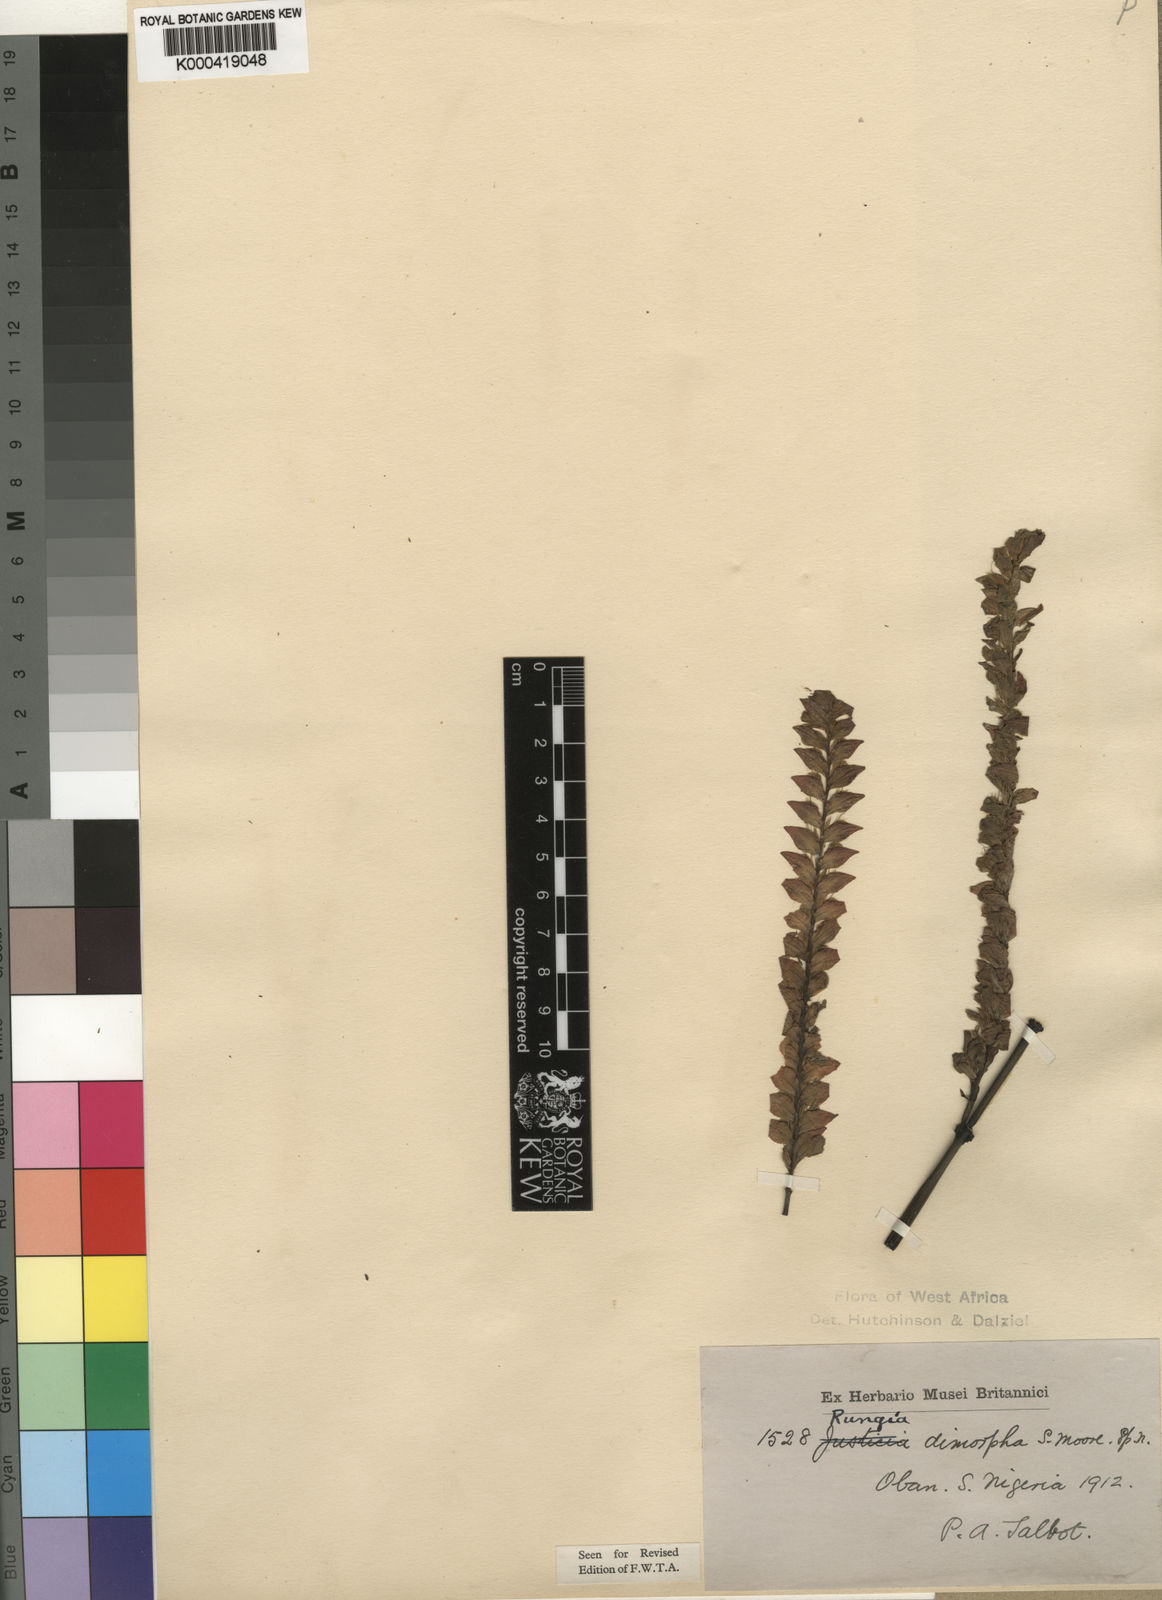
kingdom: Plantae
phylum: Tracheophyta
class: Magnoliopsida
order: Lamiales
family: Acanthaceae
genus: Justicia
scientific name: Justicia
